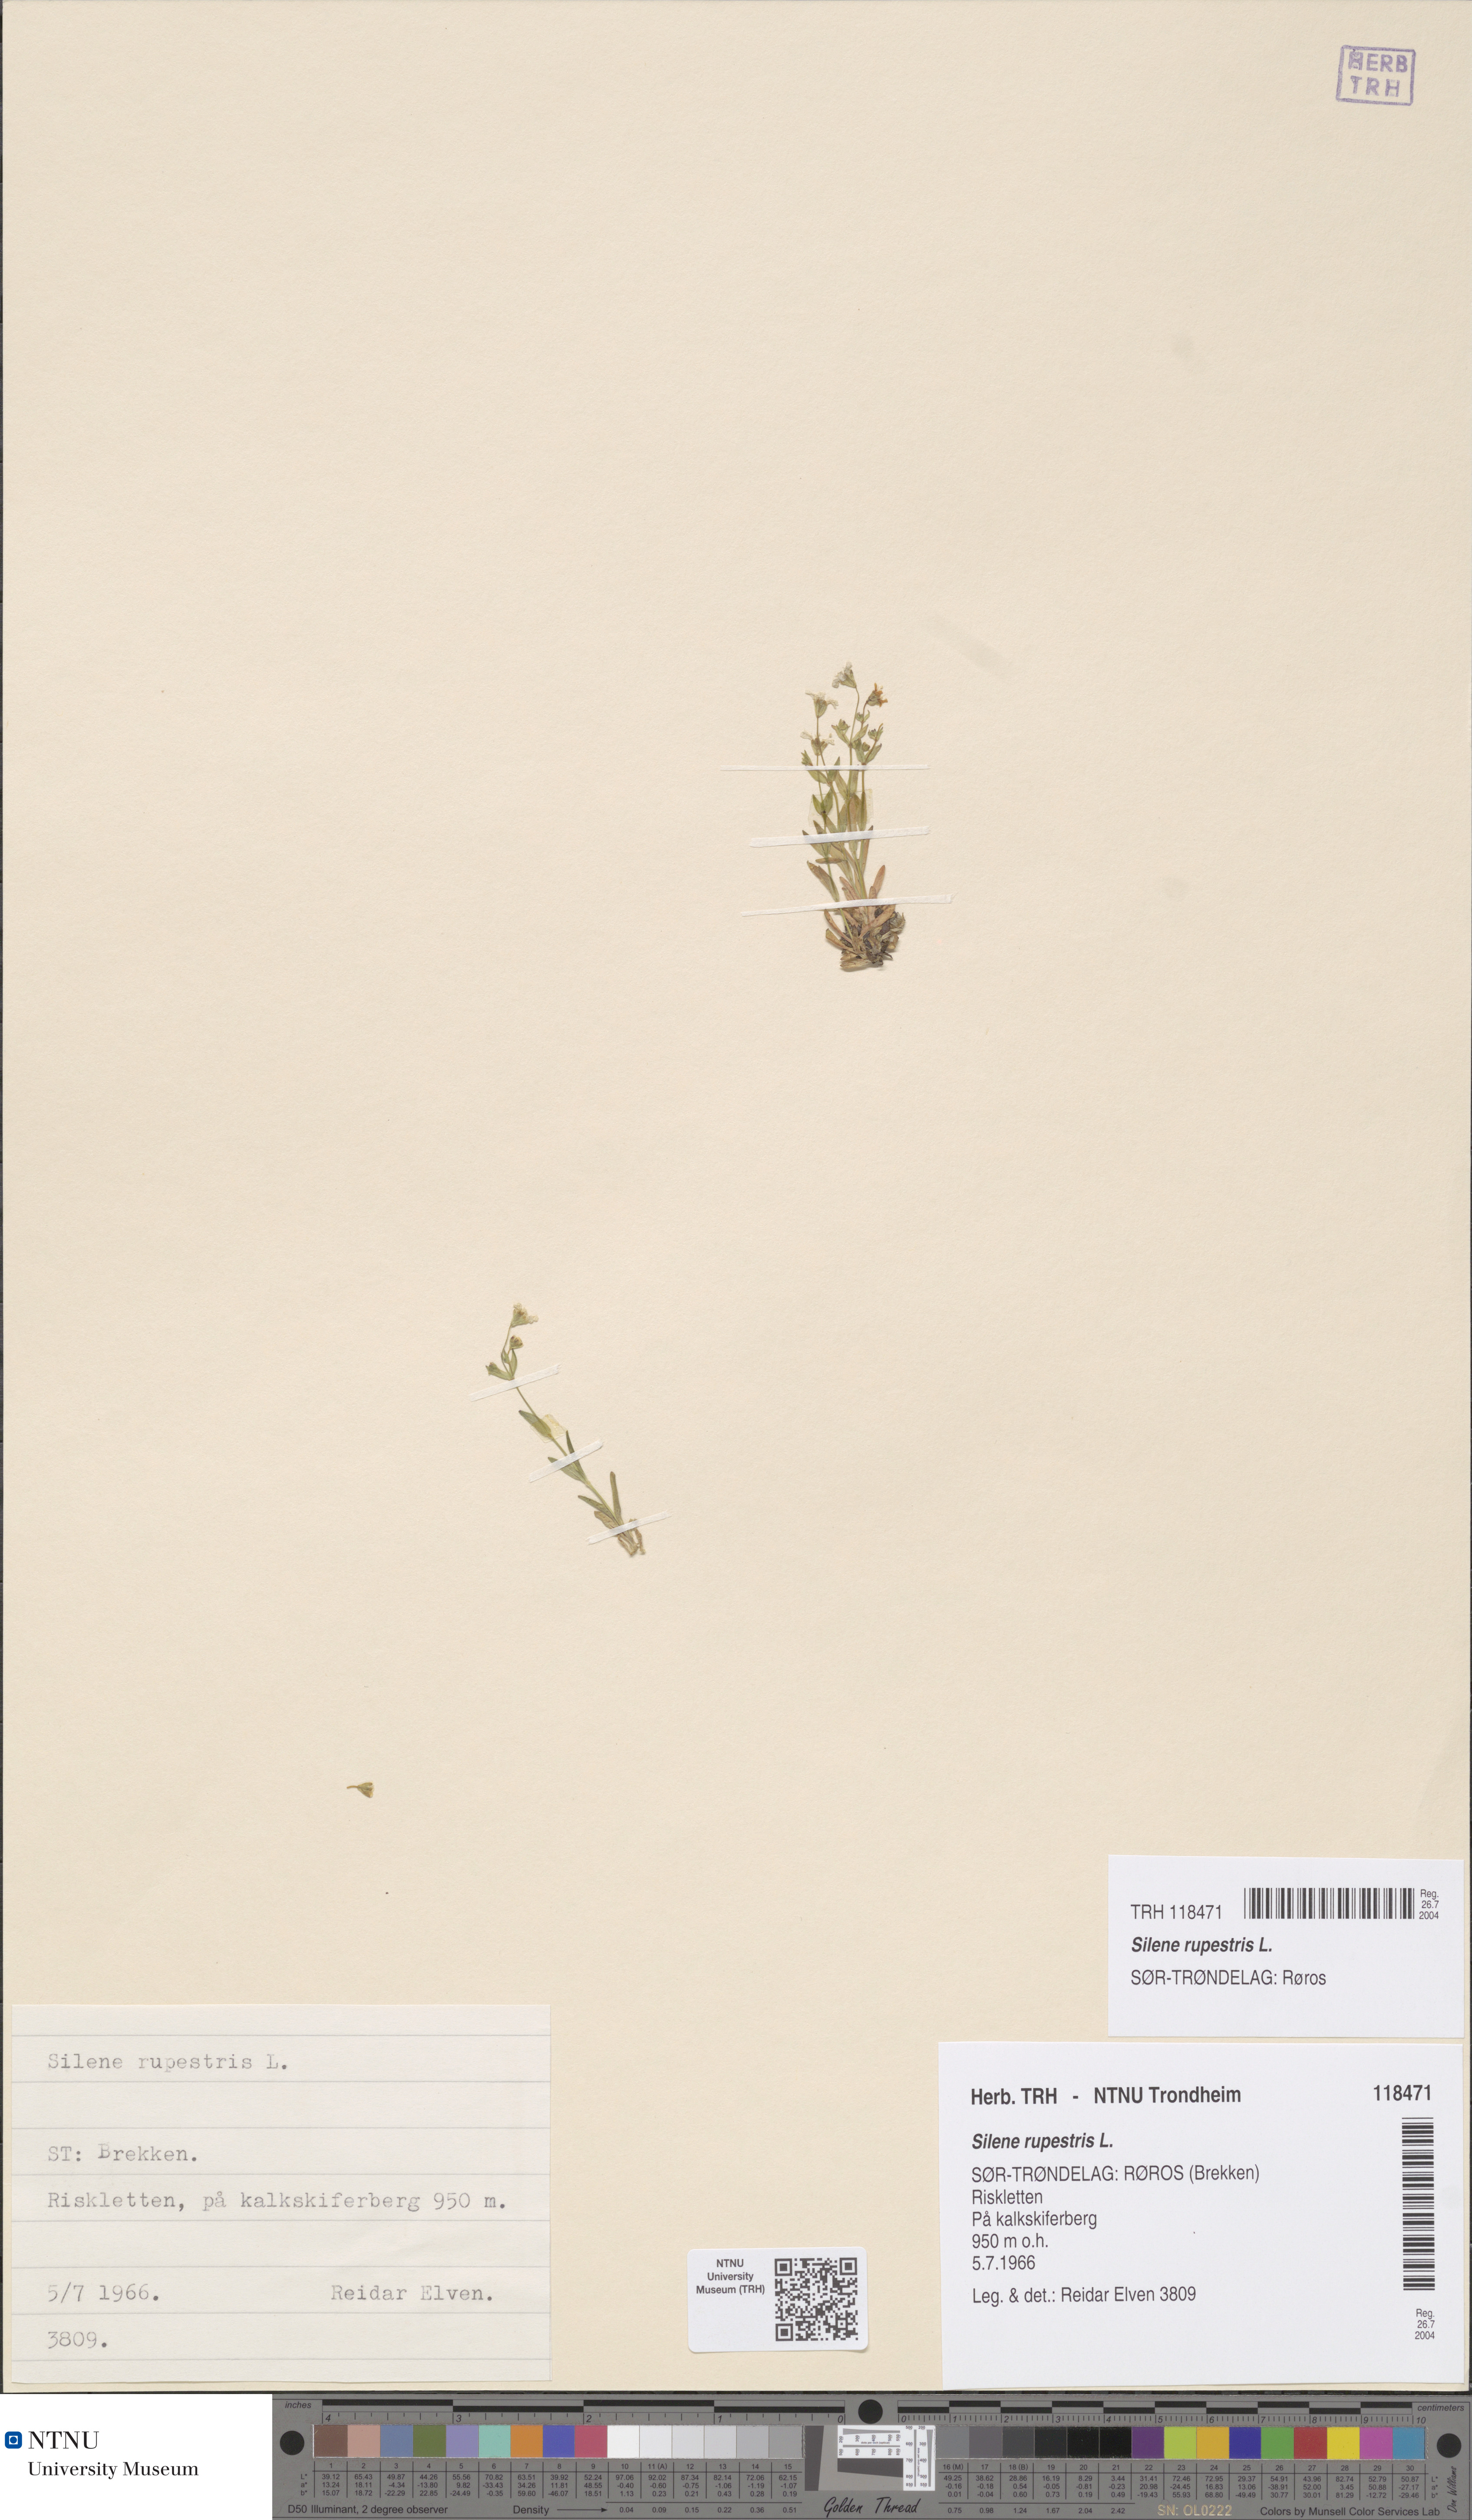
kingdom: Plantae
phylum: Tracheophyta
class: Magnoliopsida
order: Caryophyllales
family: Caryophyllaceae
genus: Atocion
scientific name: Atocion rupestre
